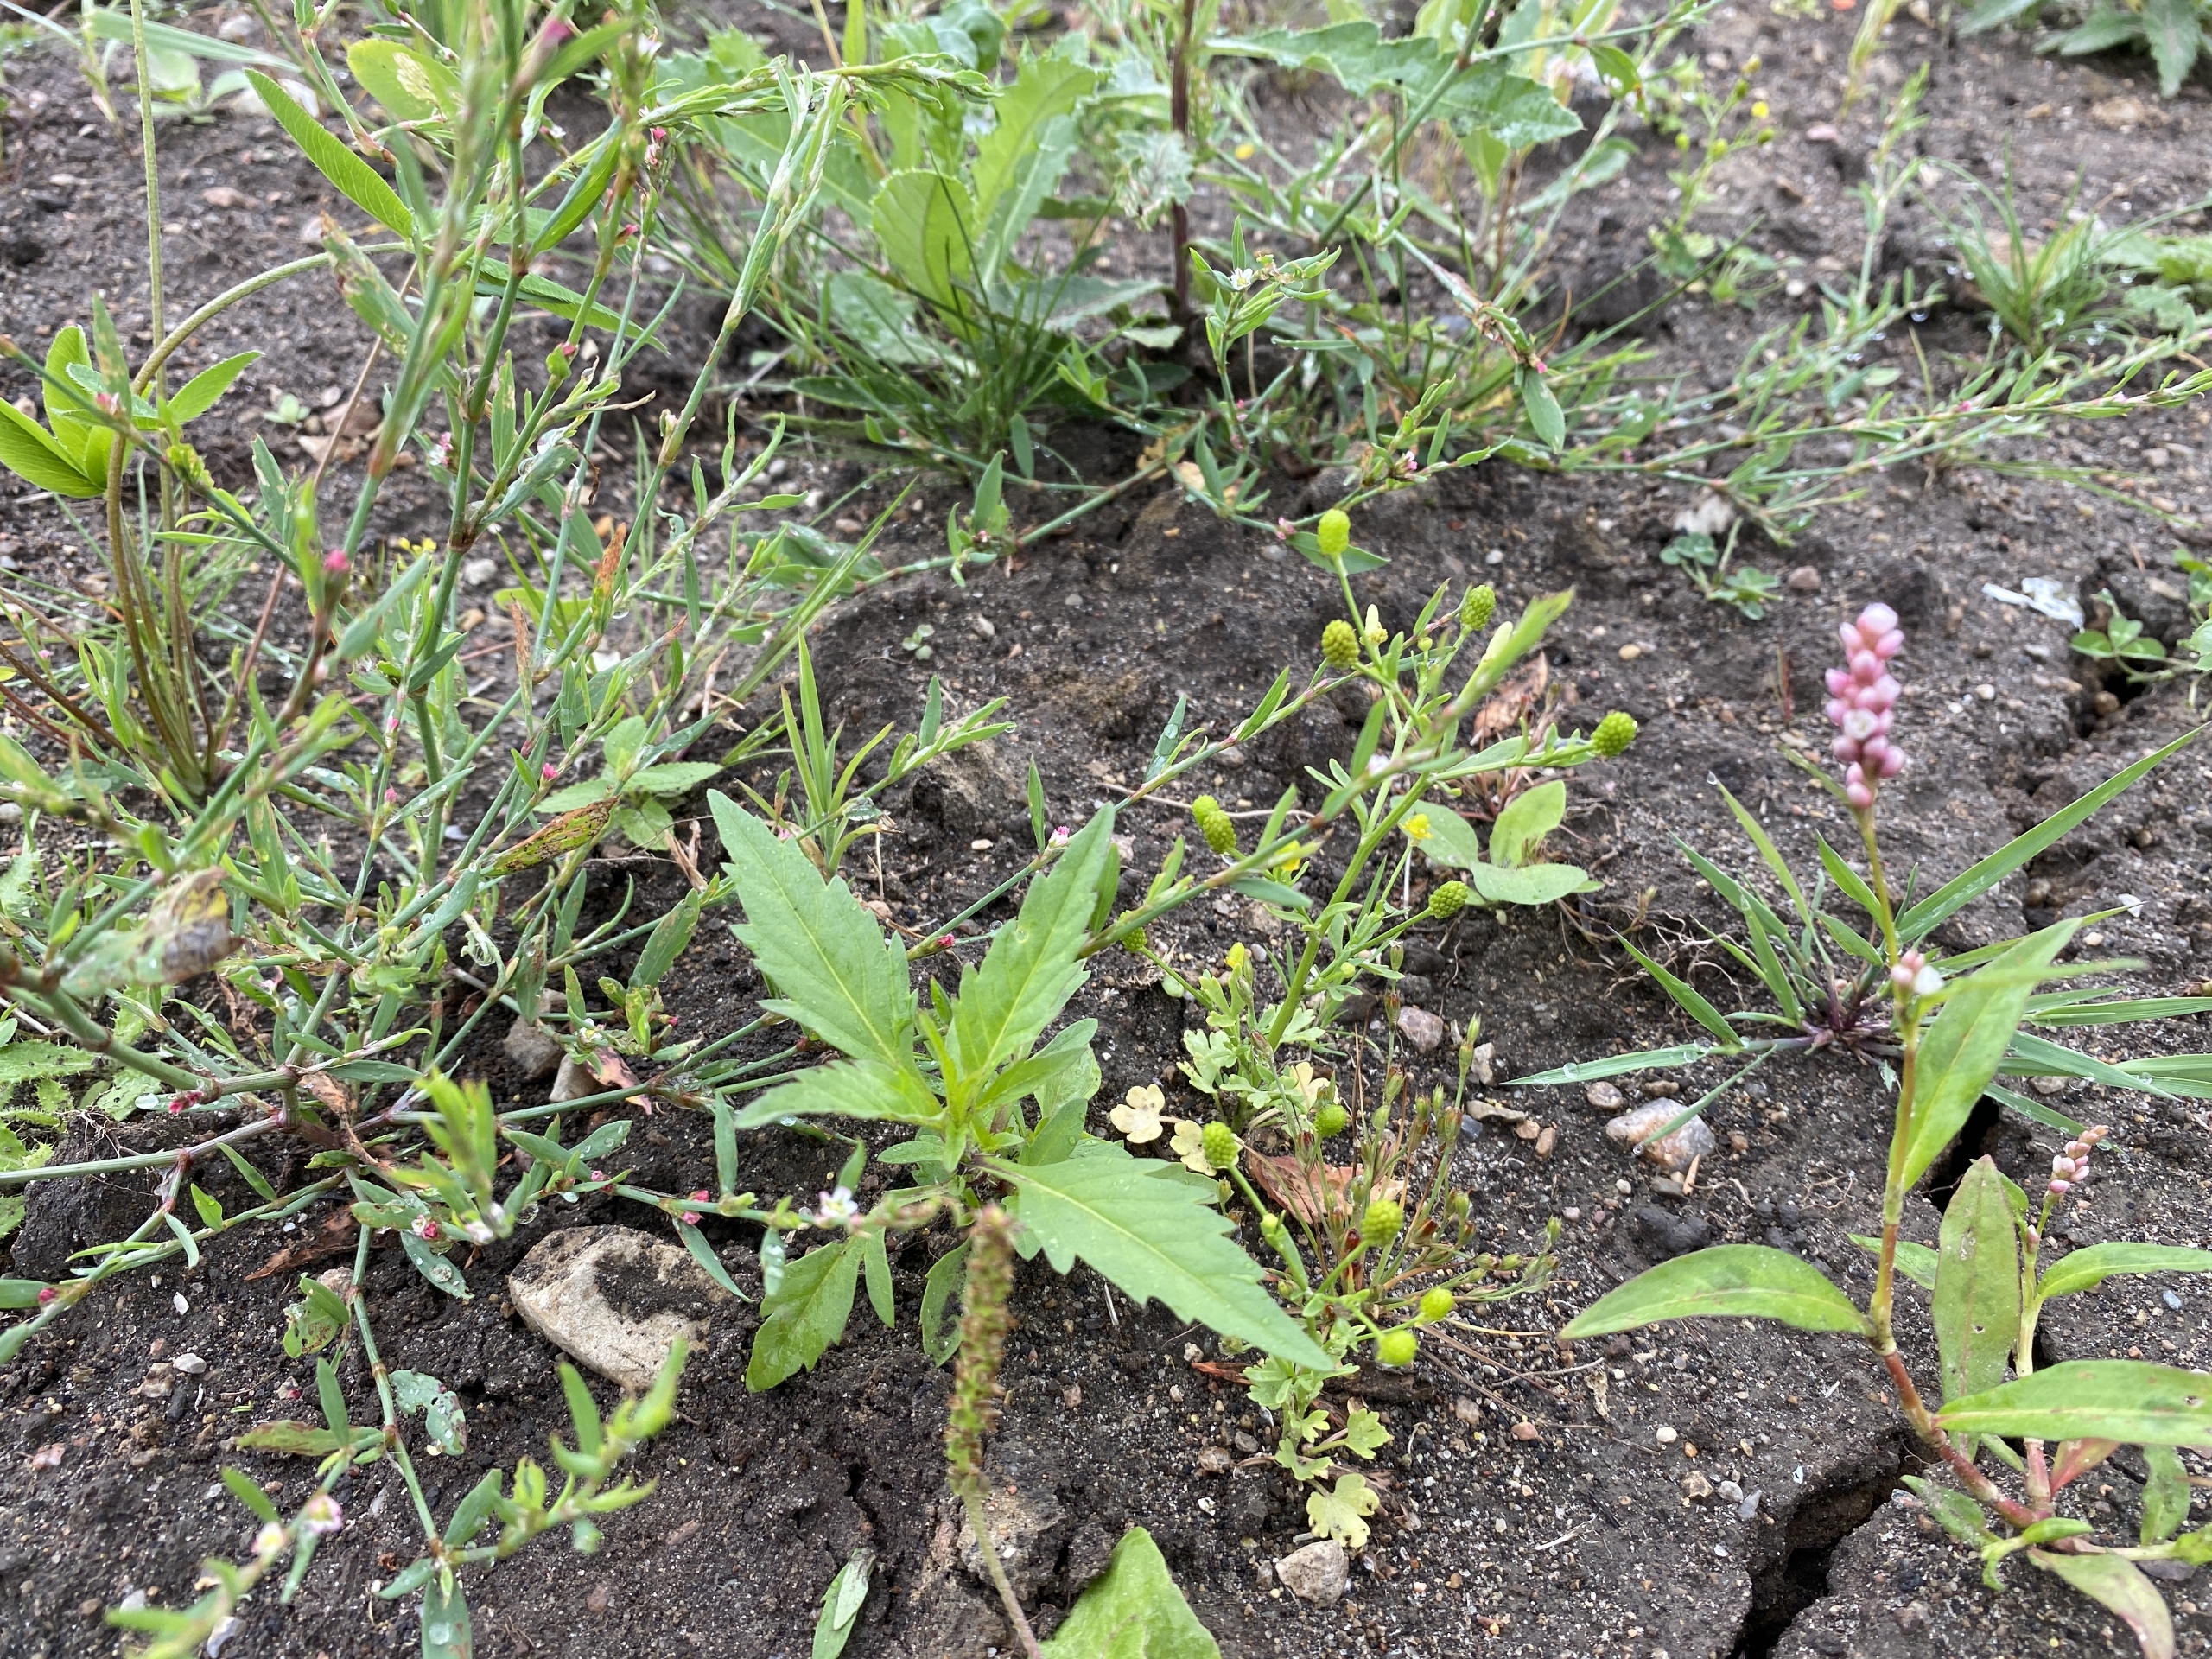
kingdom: Plantae
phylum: Tracheophyta
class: Magnoliopsida
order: Asterales
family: Asteraceae
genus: Bidens
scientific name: Bidens tripartita
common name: Fliget brøndsel
